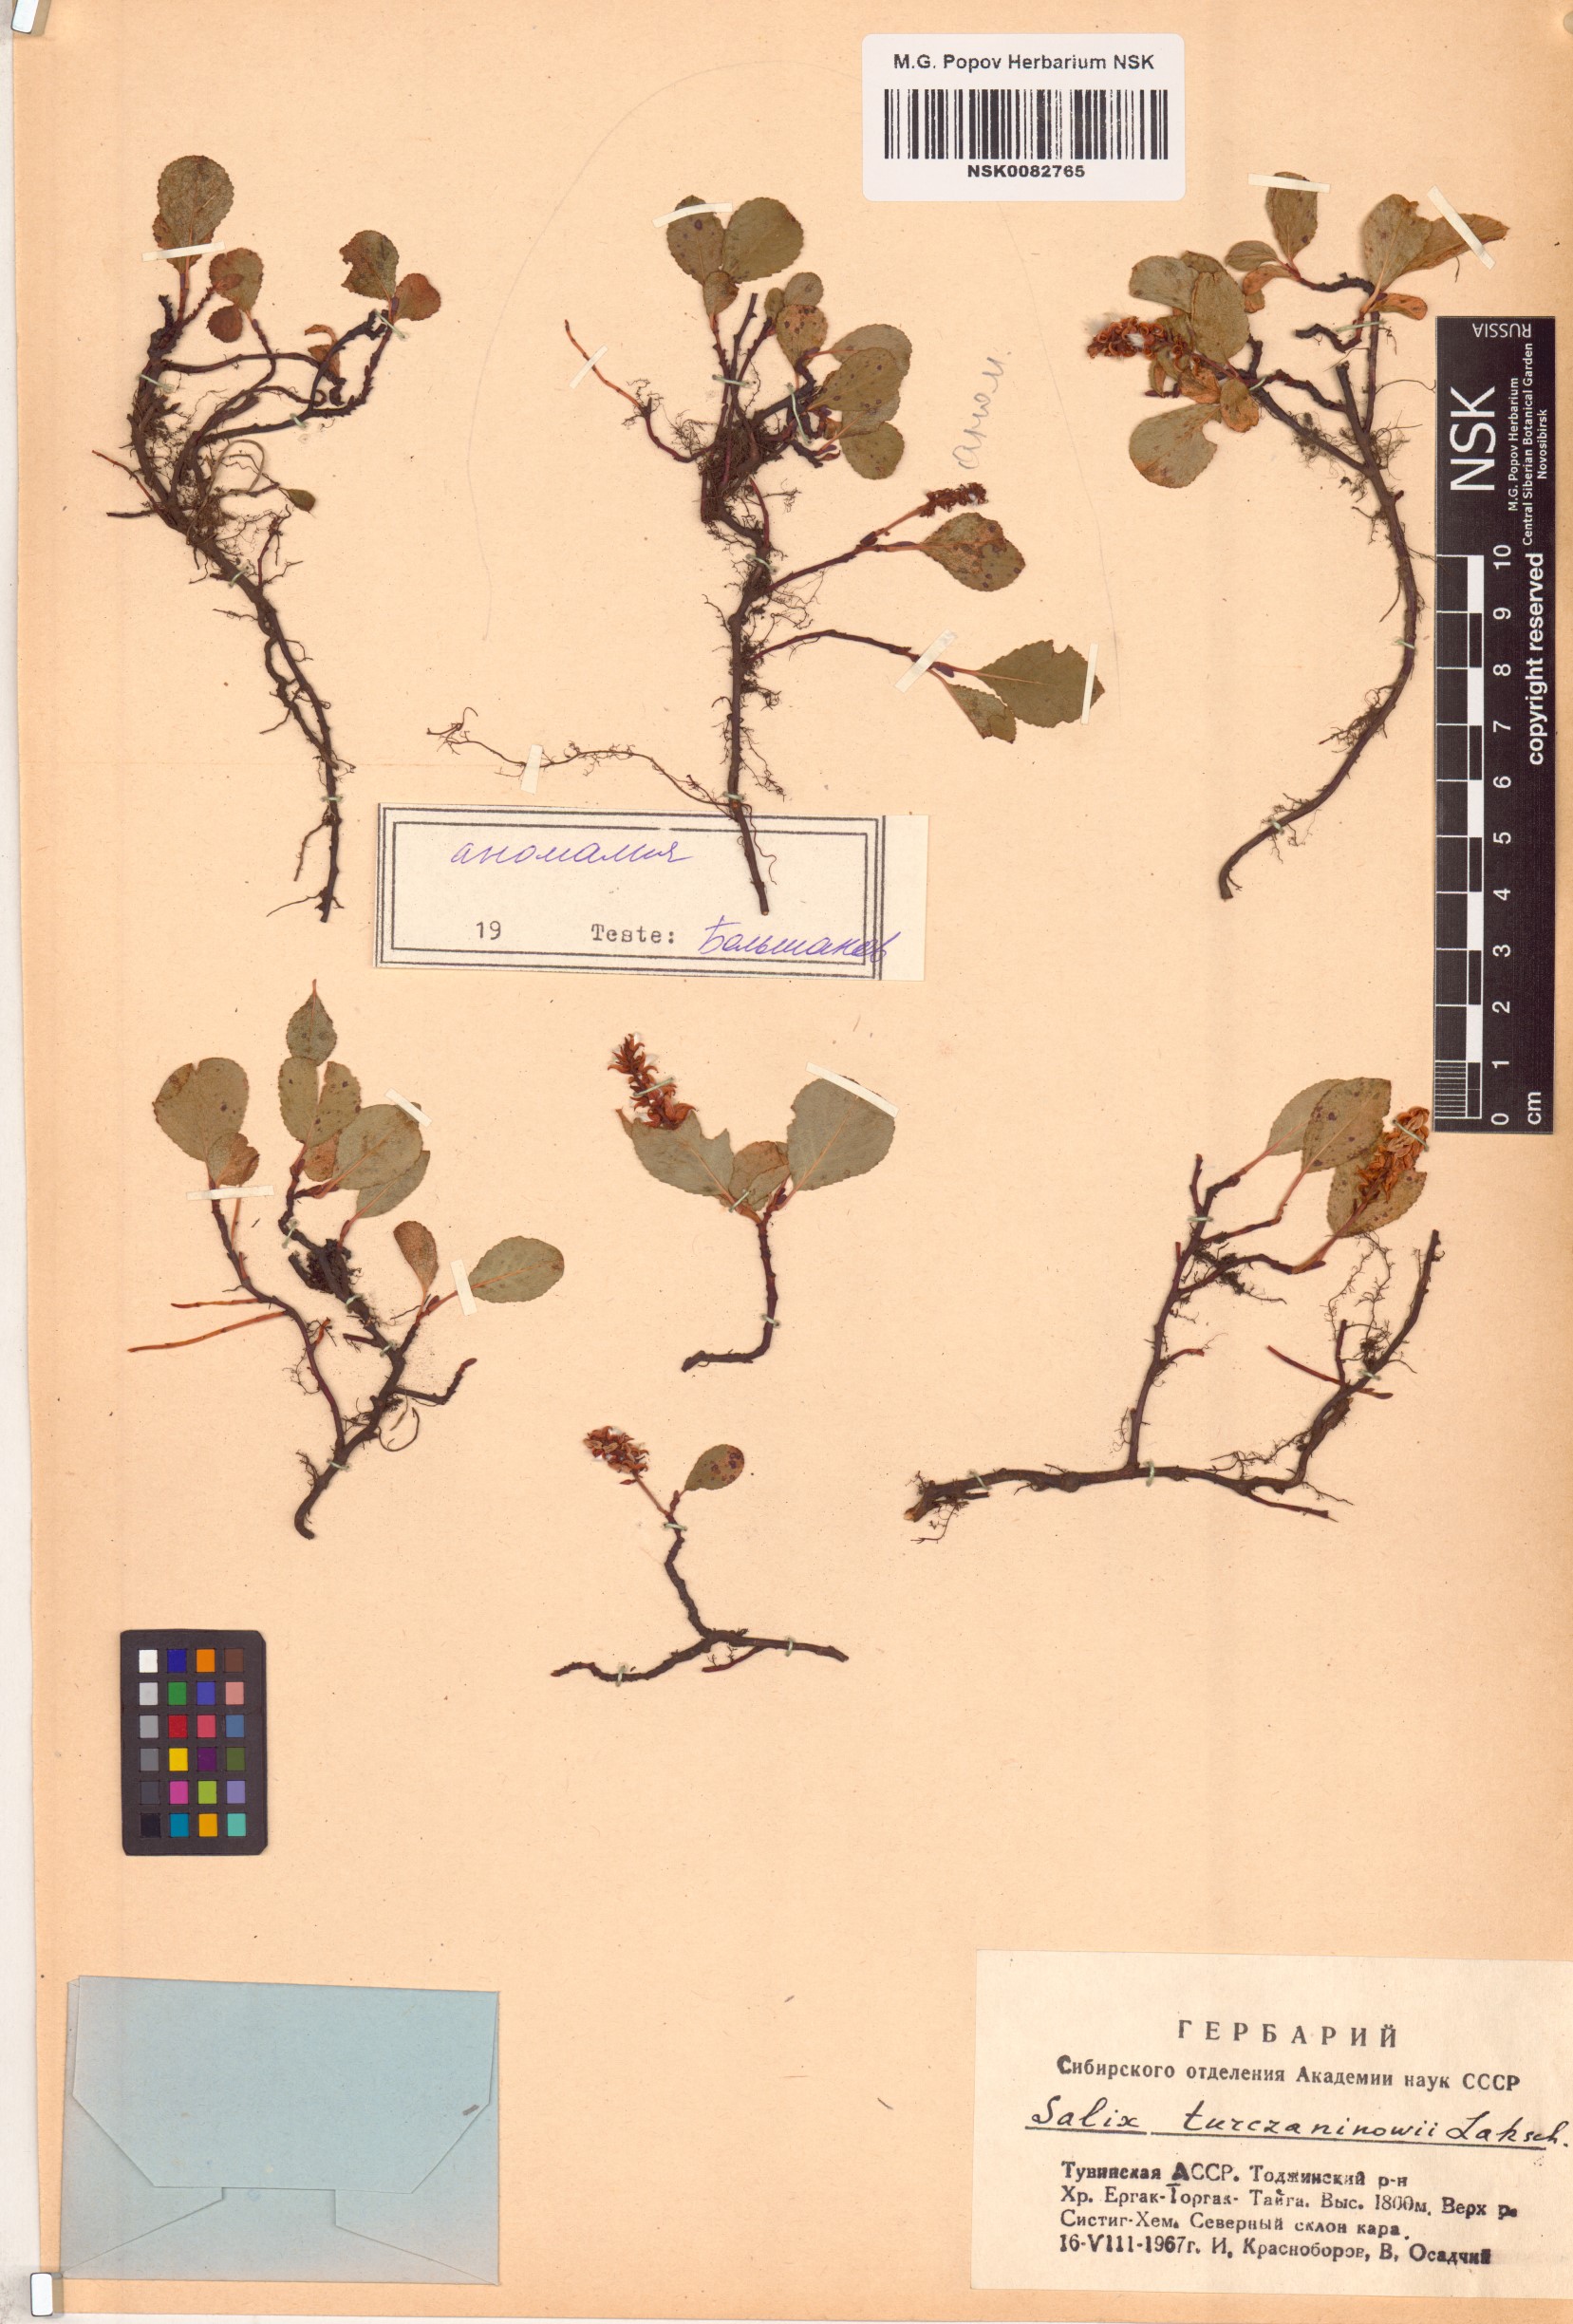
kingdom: Plantae
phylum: Tracheophyta
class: Magnoliopsida
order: Malpighiales
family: Salicaceae
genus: Salix
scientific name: Salix turczaninowii
